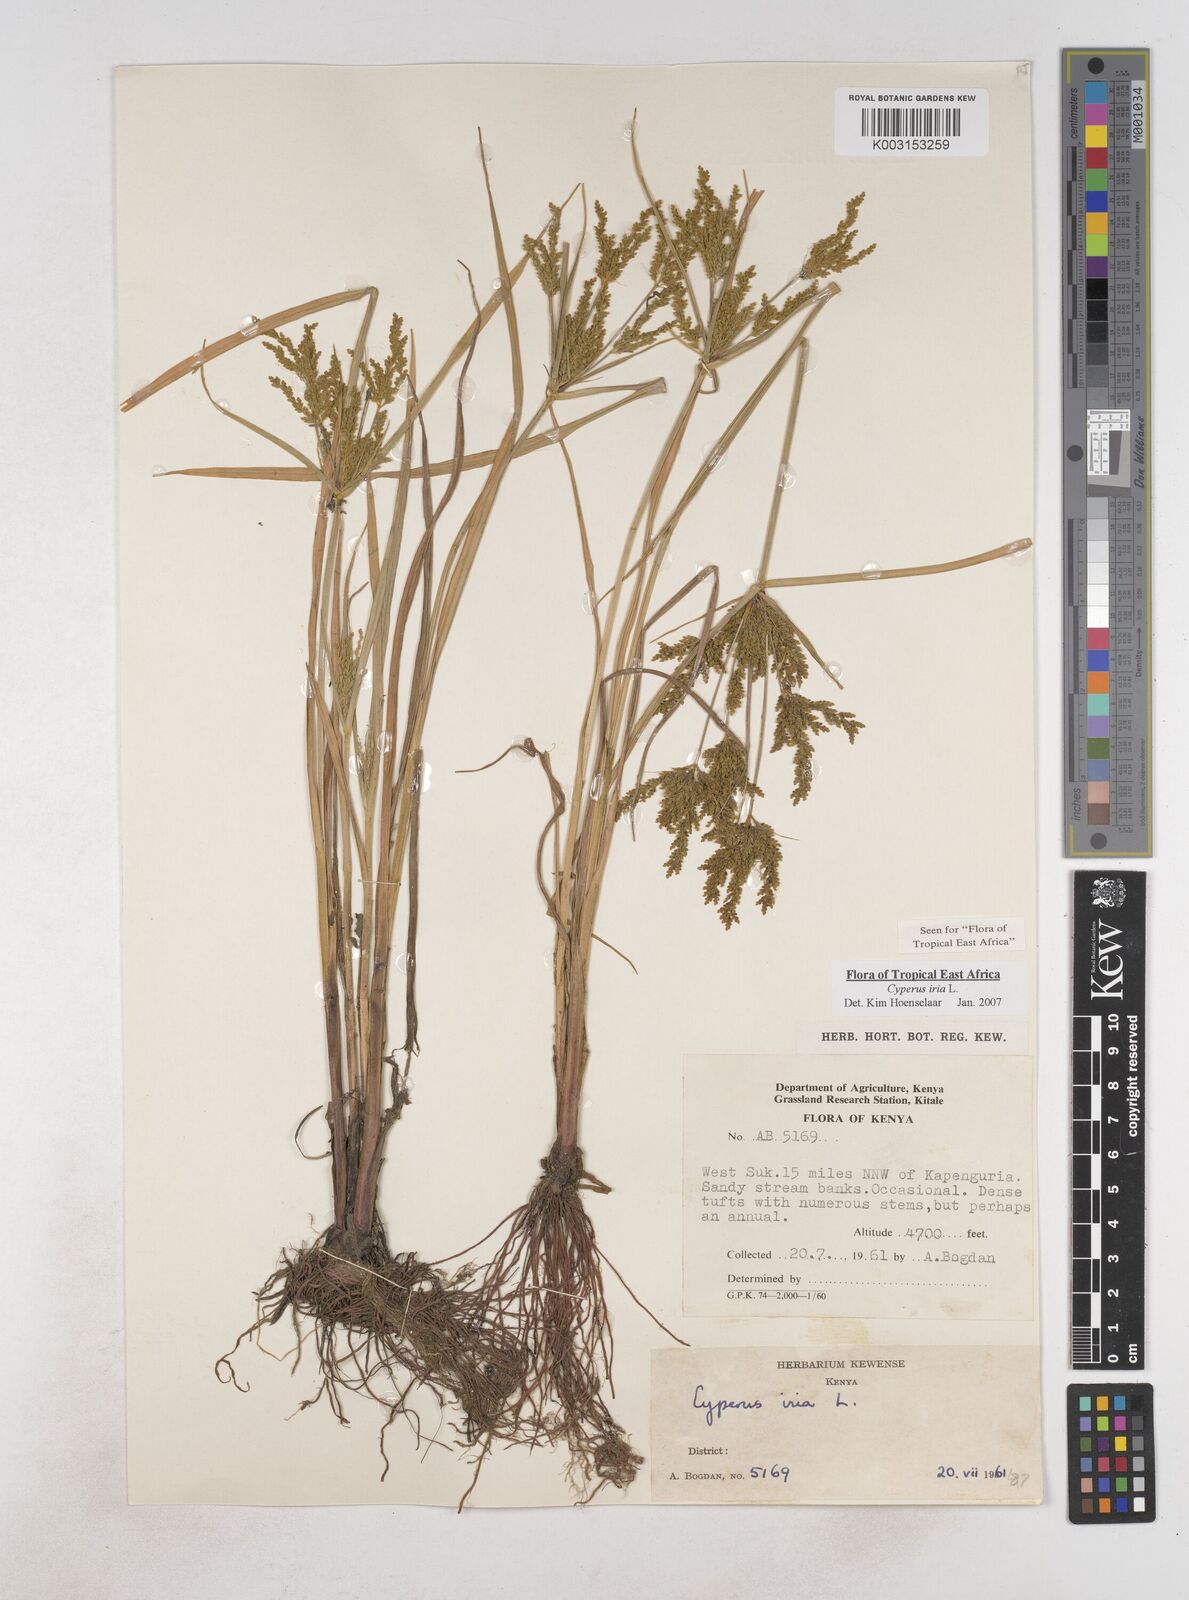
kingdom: Plantae
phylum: Tracheophyta
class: Liliopsida
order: Poales
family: Cyperaceae
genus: Cyperus
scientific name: Cyperus iria
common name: Ricefield flatsedge
